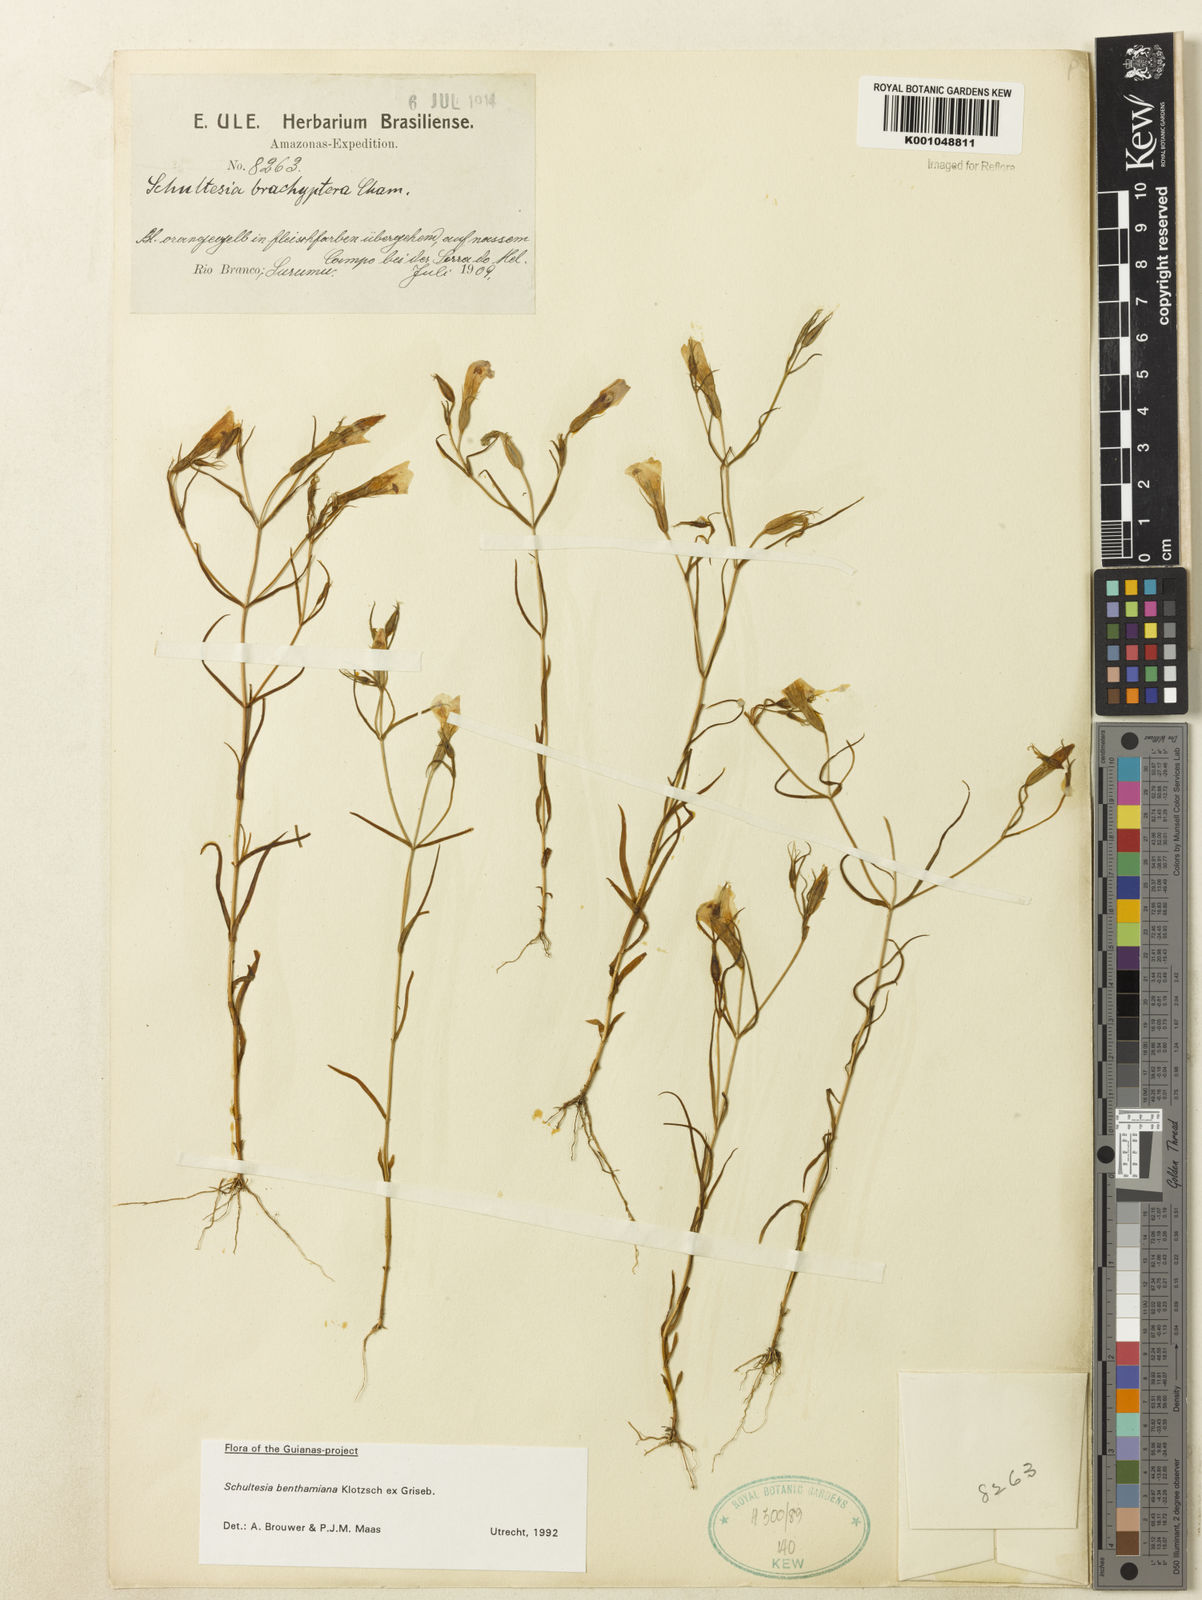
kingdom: Plantae
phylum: Tracheophyta
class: Magnoliopsida
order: Gentianales
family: Gentianaceae
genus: Schultesia
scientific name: Schultesia benthamiana
